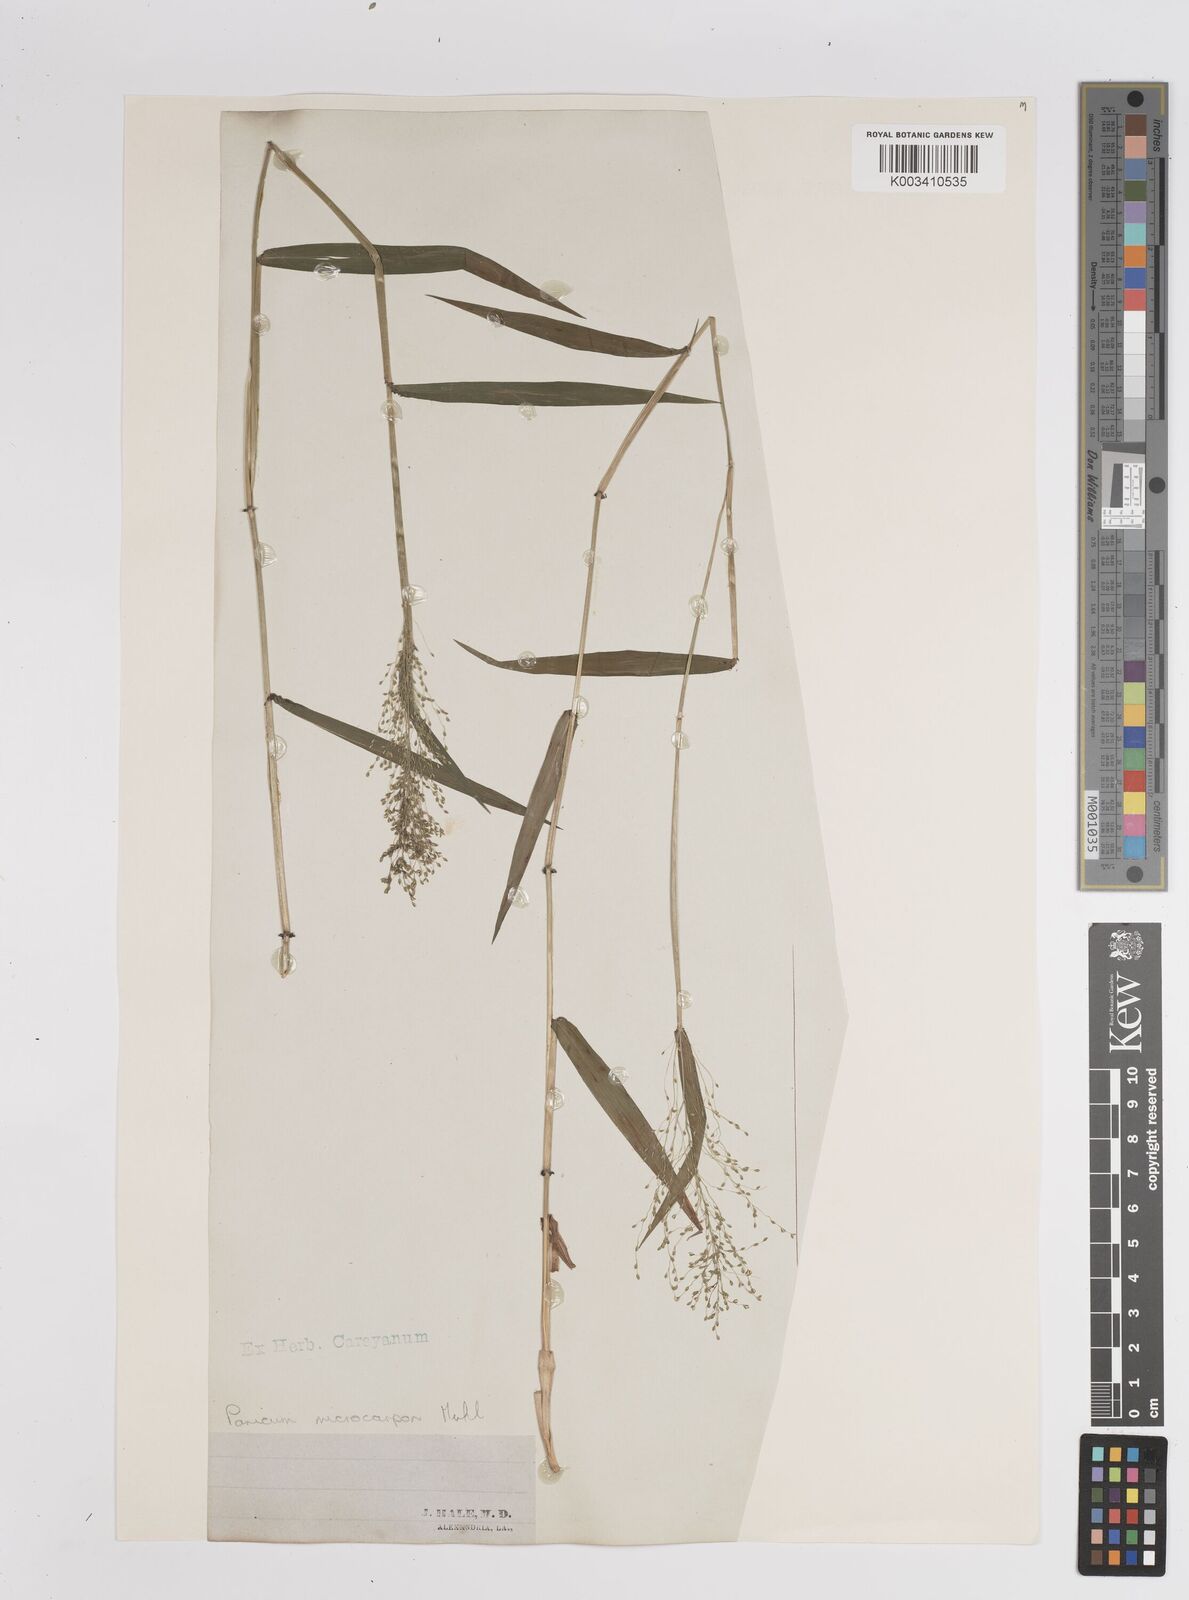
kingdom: Plantae
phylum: Tracheophyta
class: Liliopsida
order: Poales
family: Poaceae
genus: Dichanthelium
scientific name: Dichanthelium polyanthes
